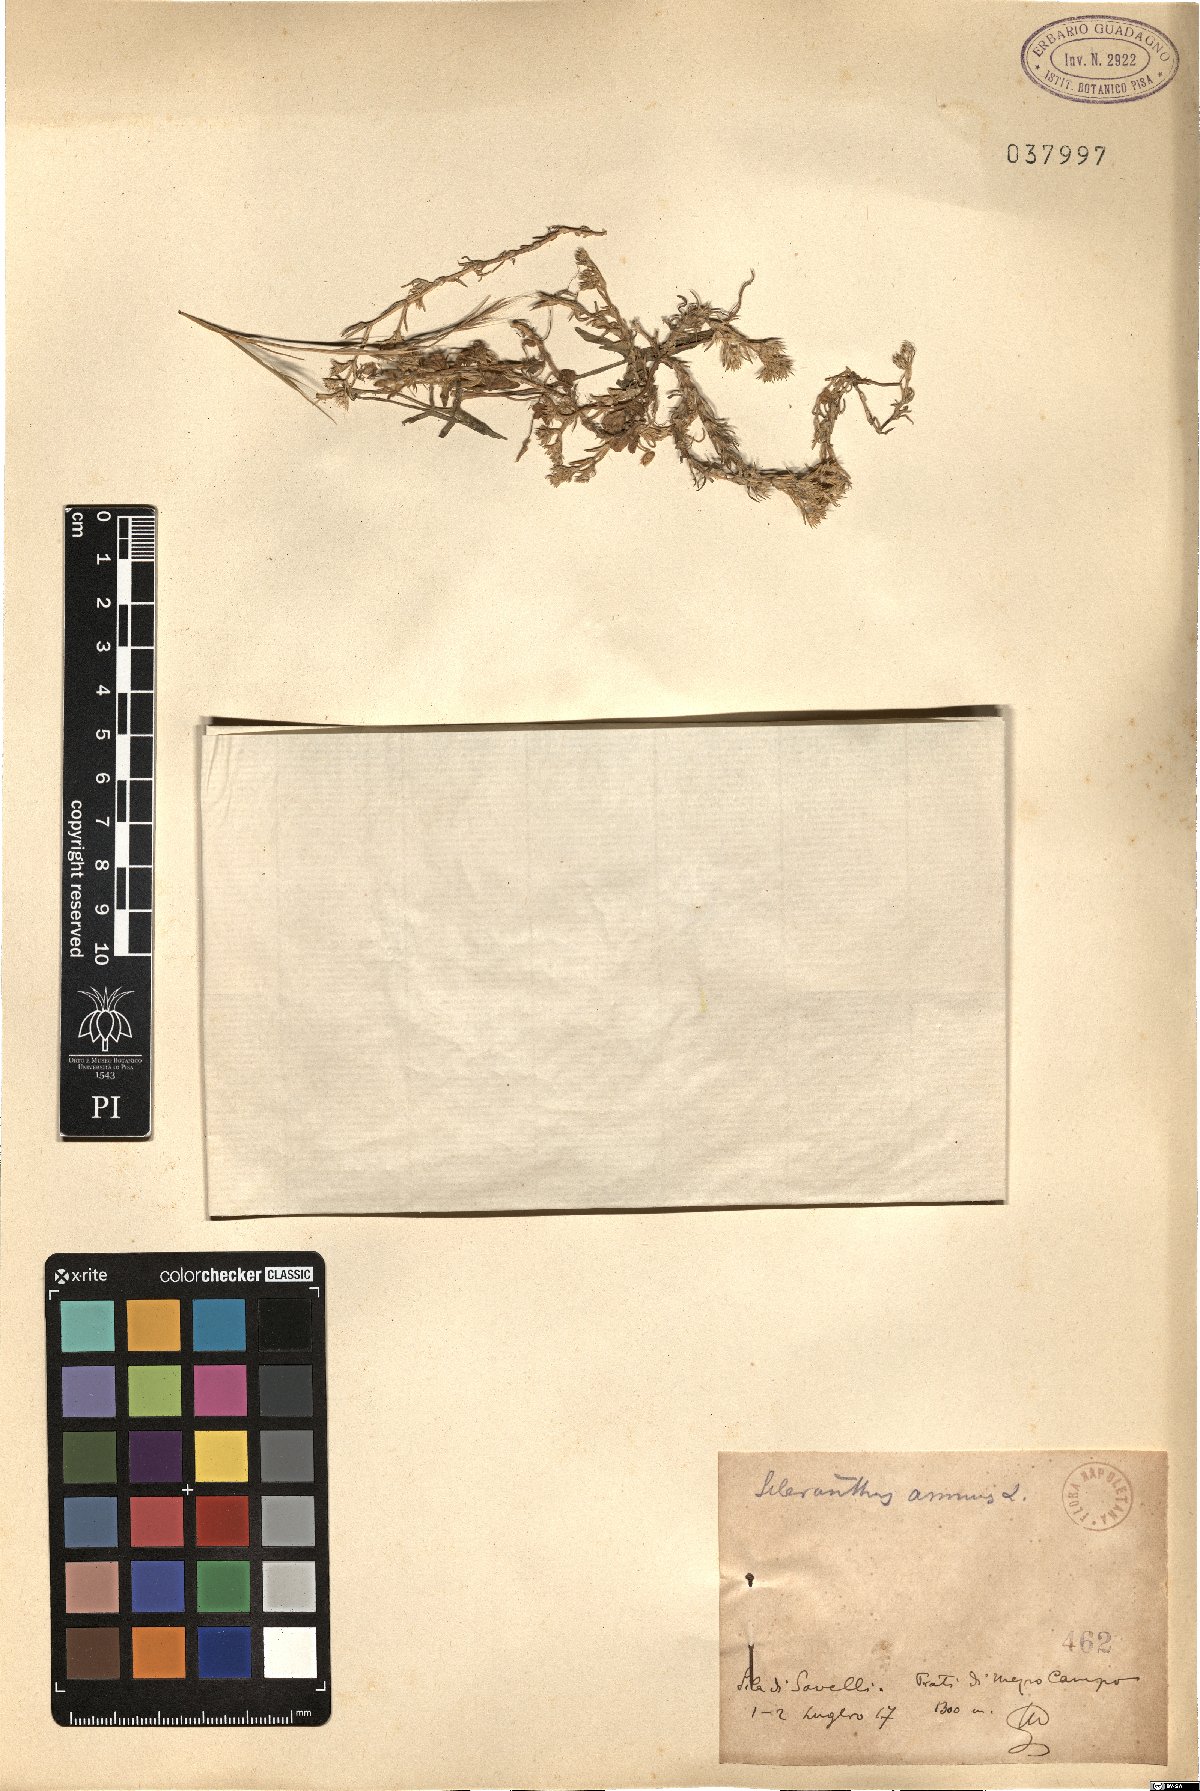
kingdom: Plantae
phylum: Tracheophyta
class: Magnoliopsida
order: Caryophyllales
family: Caryophyllaceae
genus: Scleranthus
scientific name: Scleranthus annuus
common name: Annual knawel
